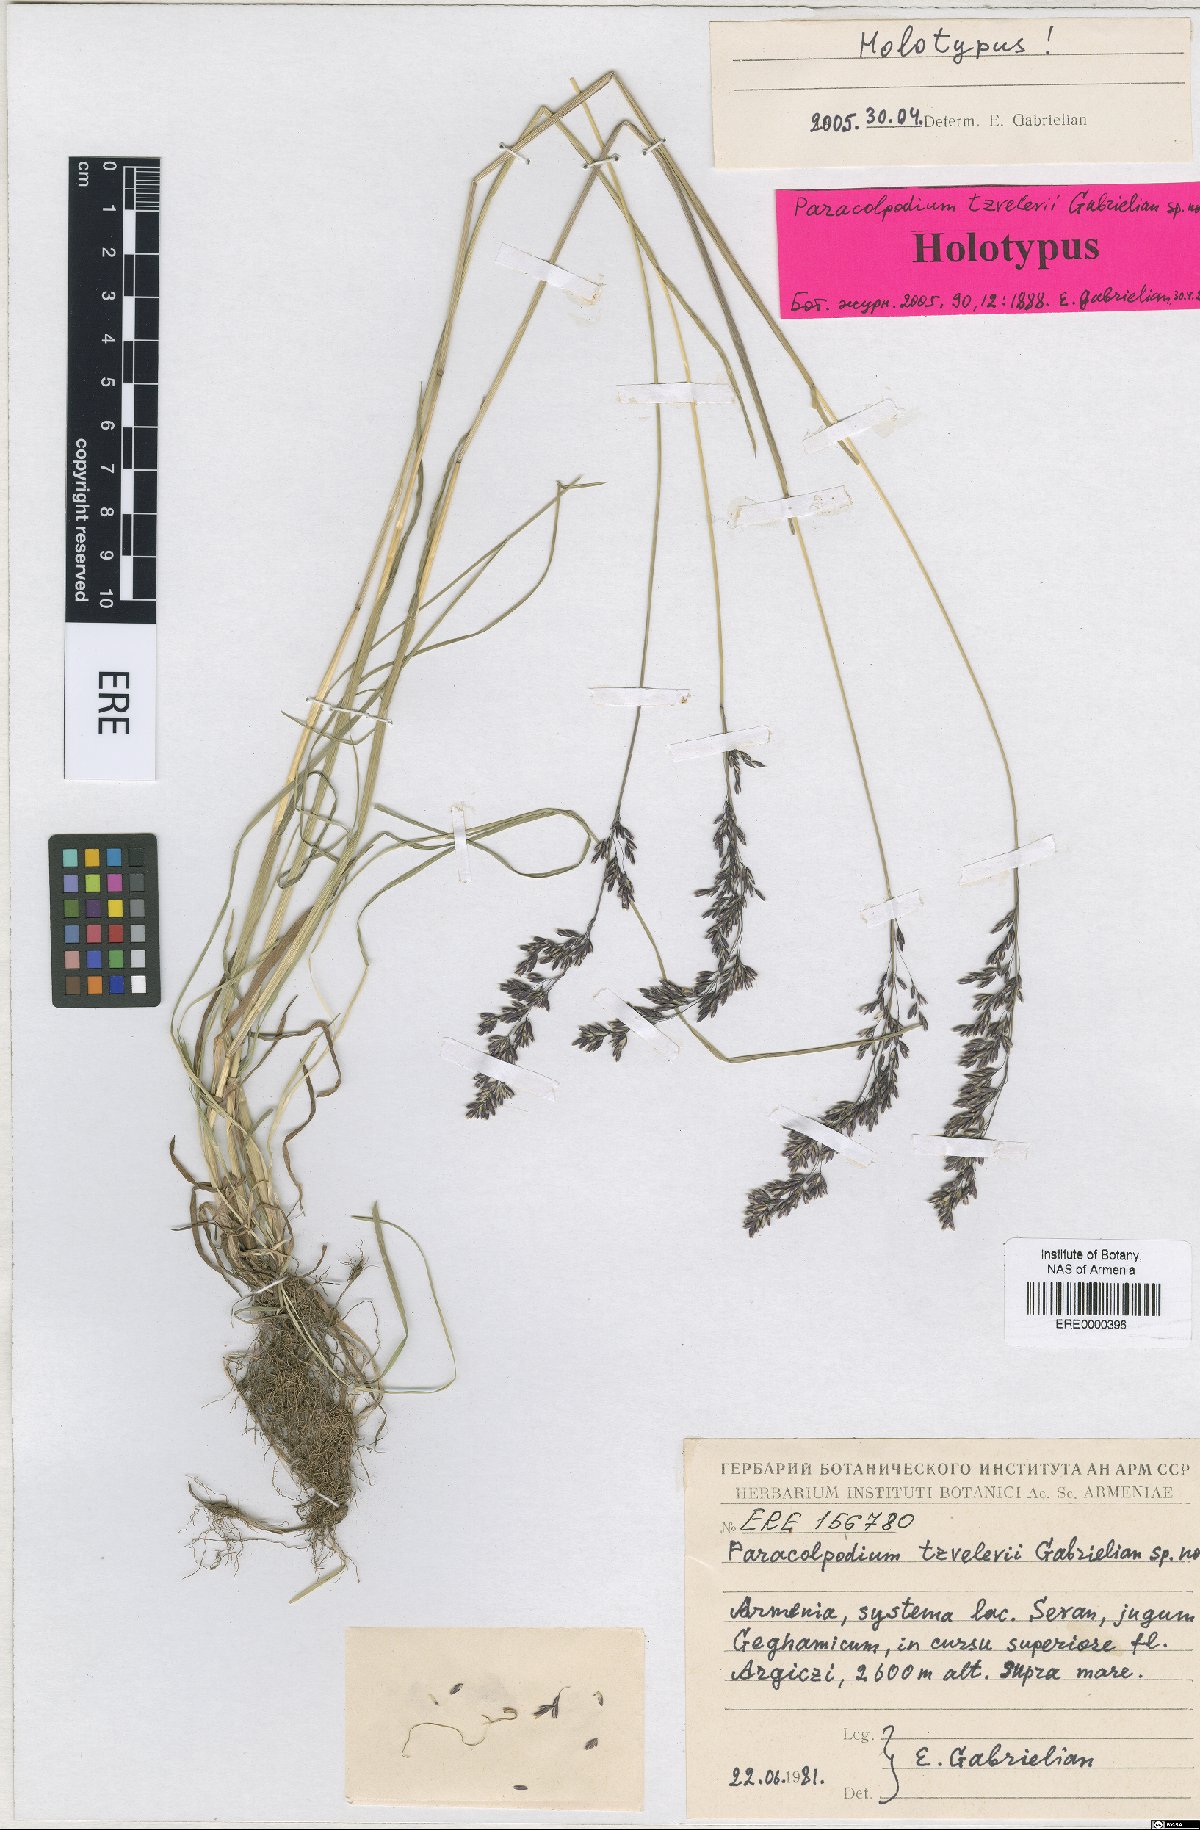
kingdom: Plantae
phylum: Tracheophyta
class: Liliopsida
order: Poales
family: Poaceae
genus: Paracolpodium
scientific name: Paracolpodium tzvelevii
